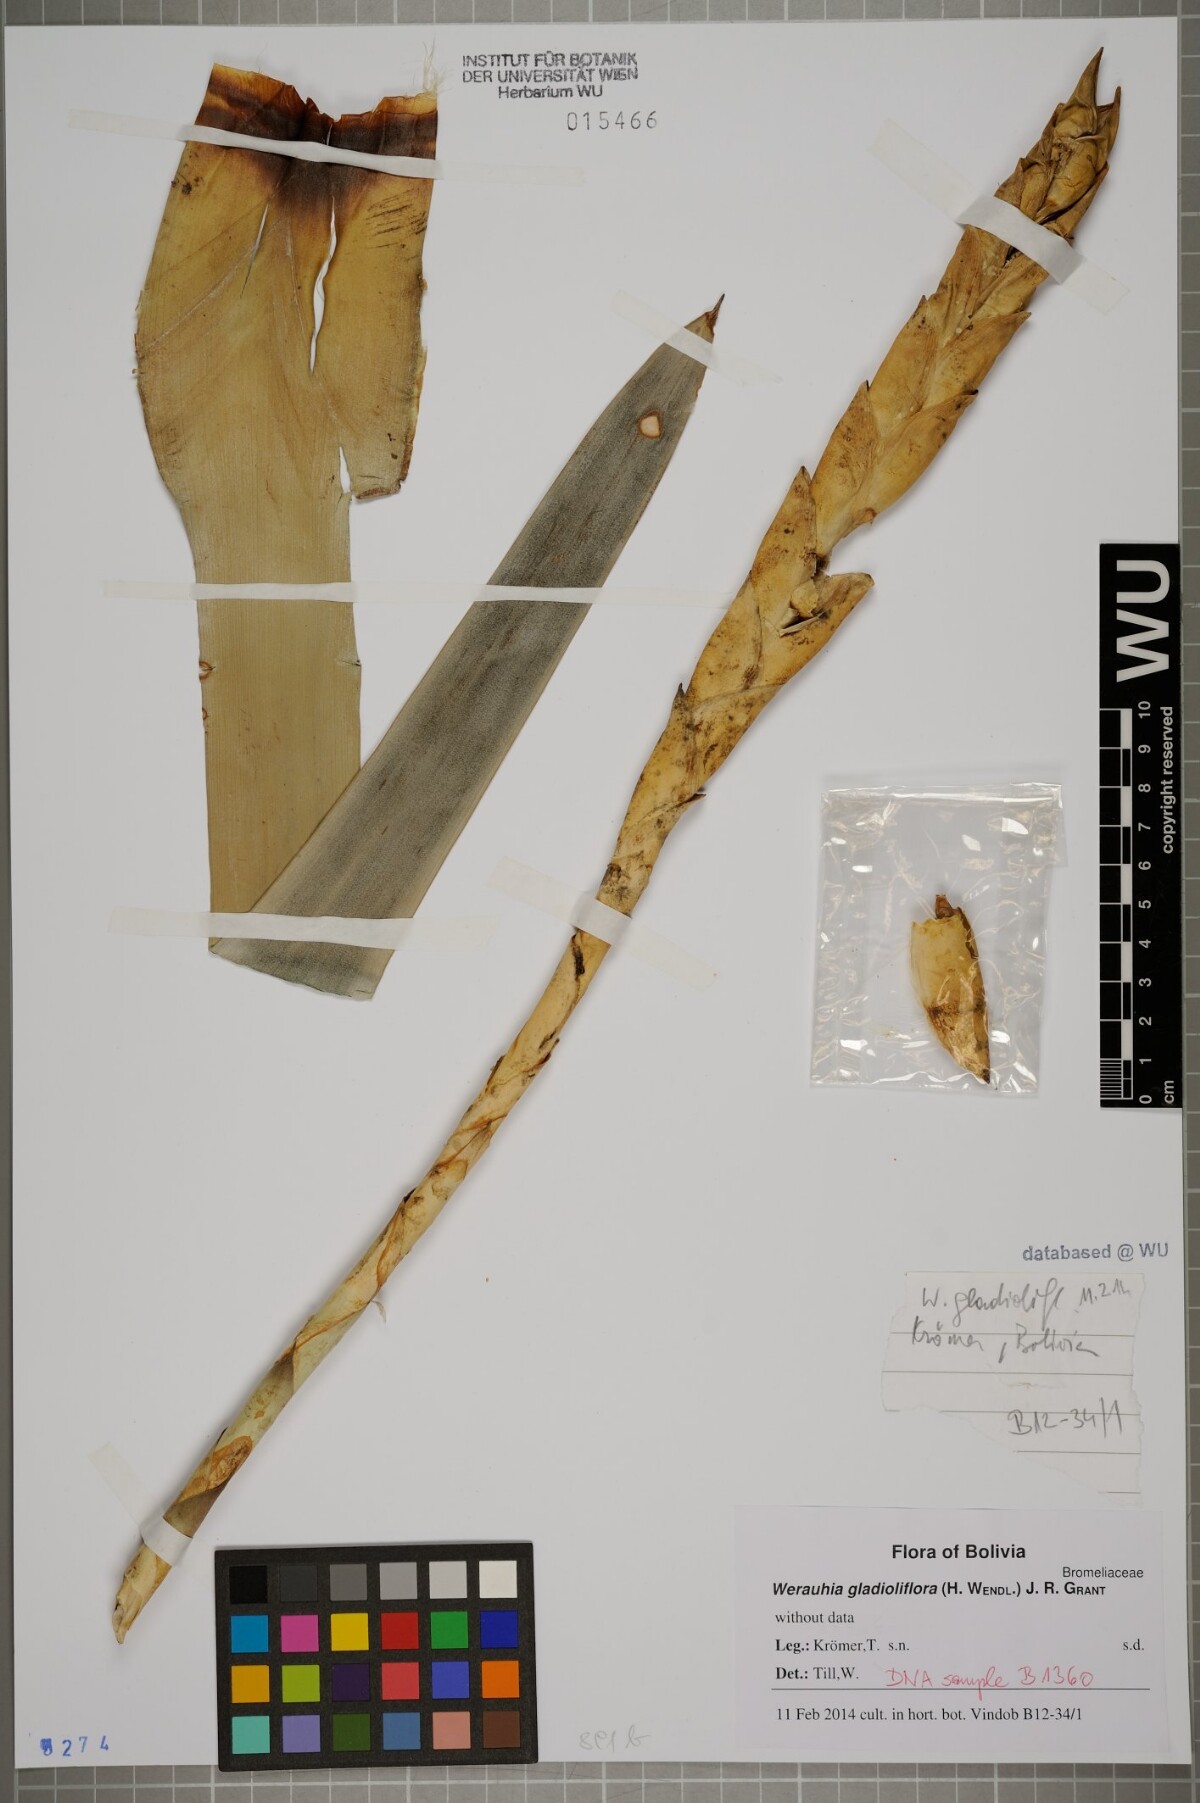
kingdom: Plantae
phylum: Tracheophyta
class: Liliopsida
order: Poales
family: Bromeliaceae
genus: Werauhia
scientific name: Werauhia gladioliflora
